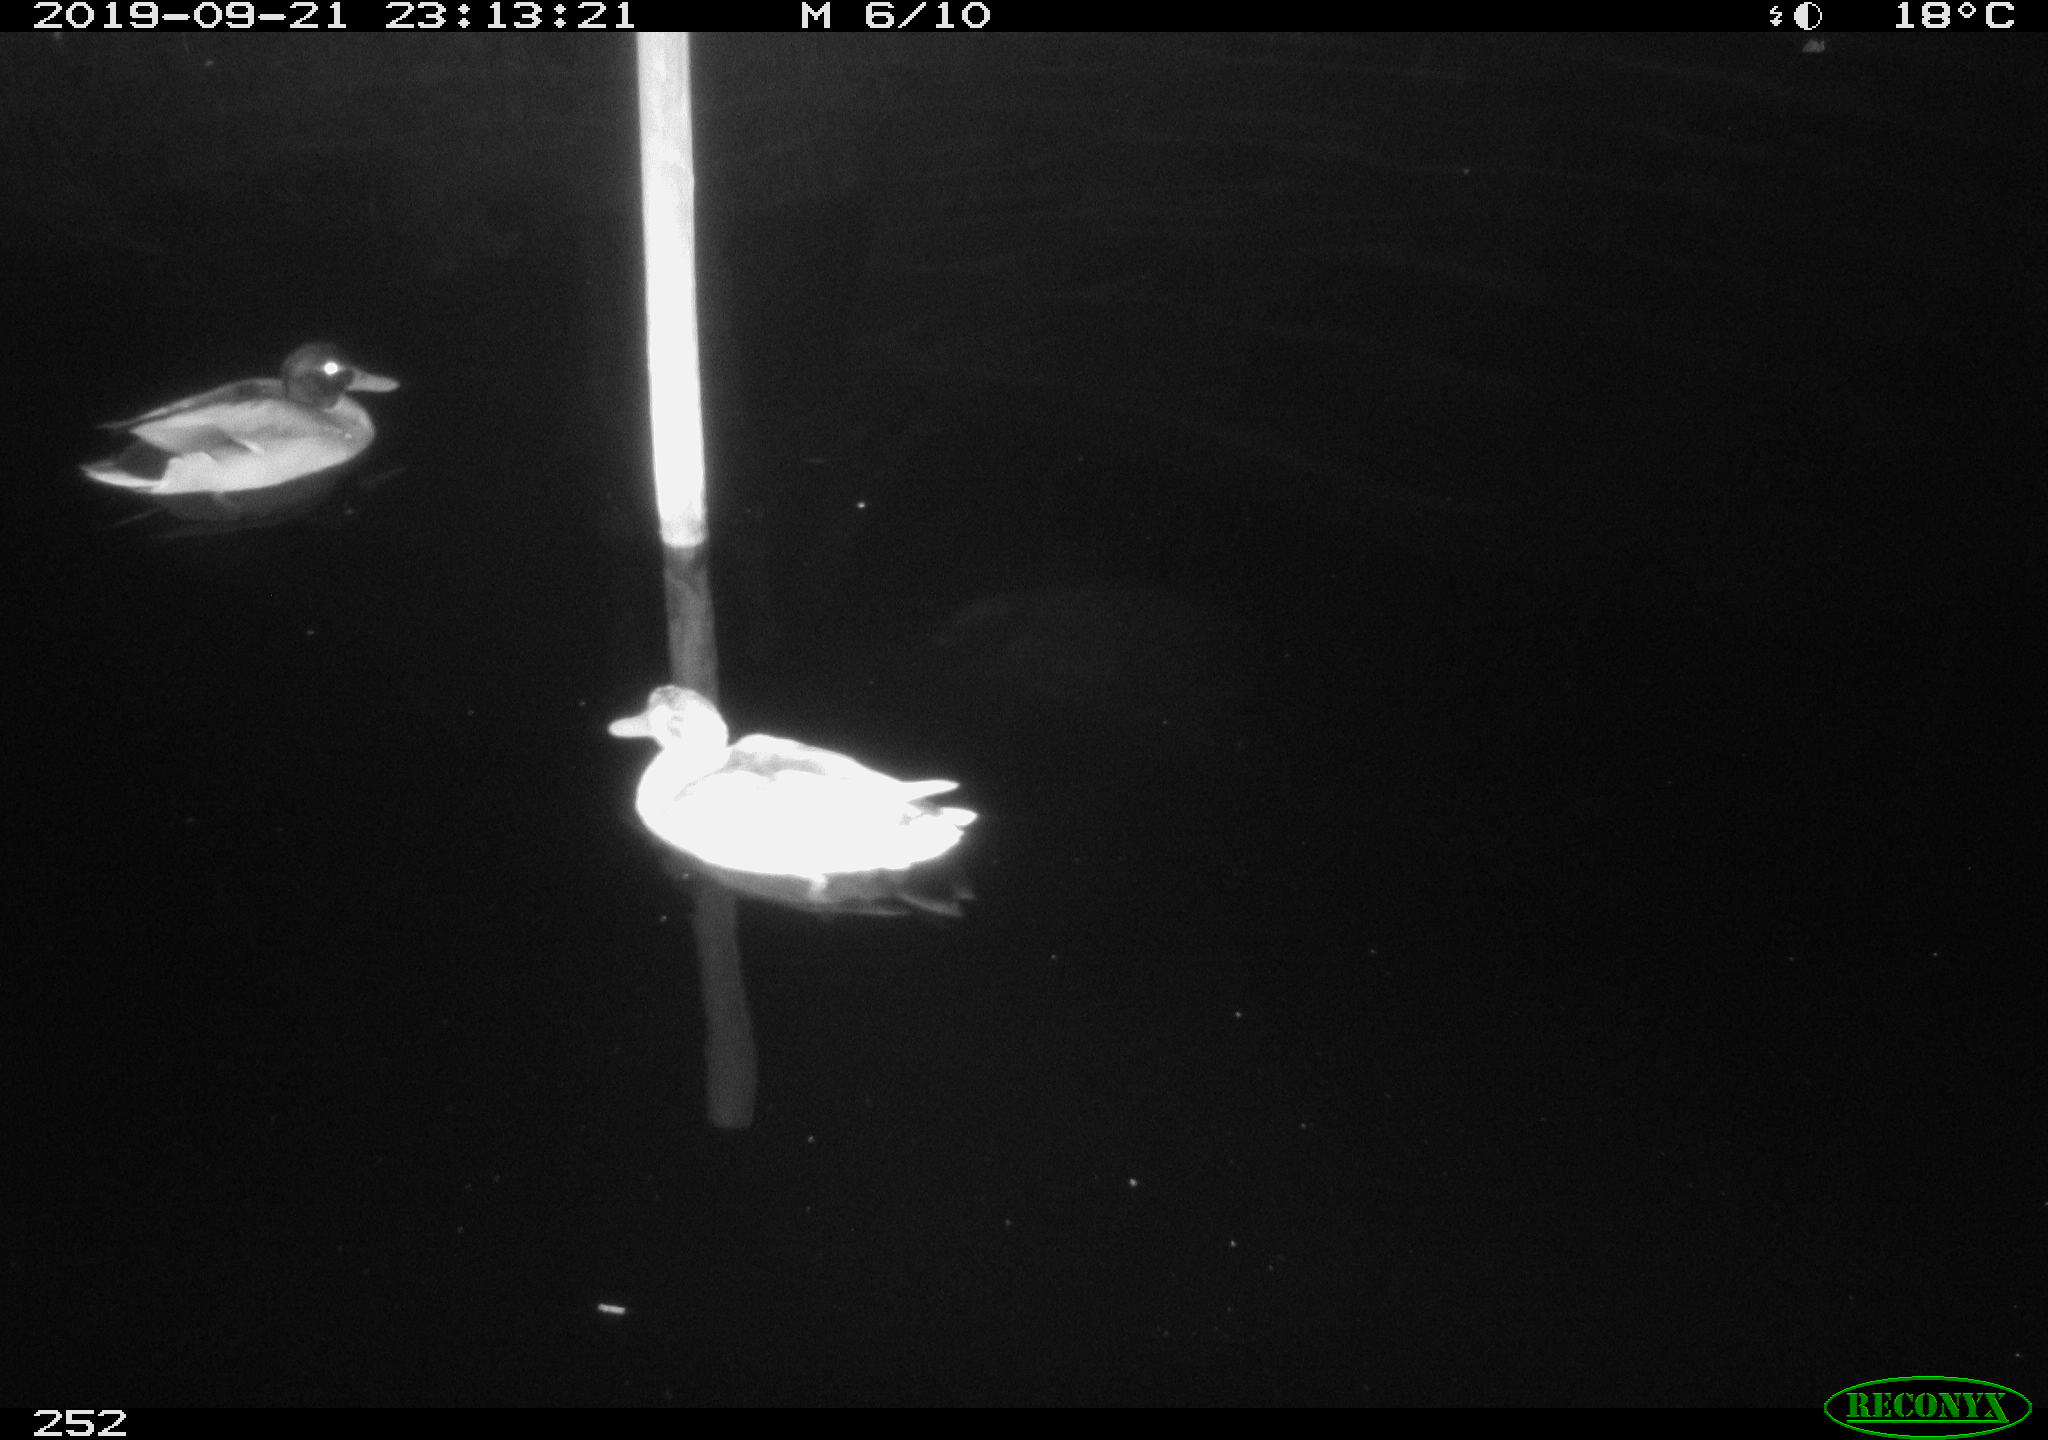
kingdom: Animalia
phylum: Chordata
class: Aves
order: Anseriformes
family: Anatidae
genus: Anas
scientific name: Anas platyrhynchos
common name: Mallard
